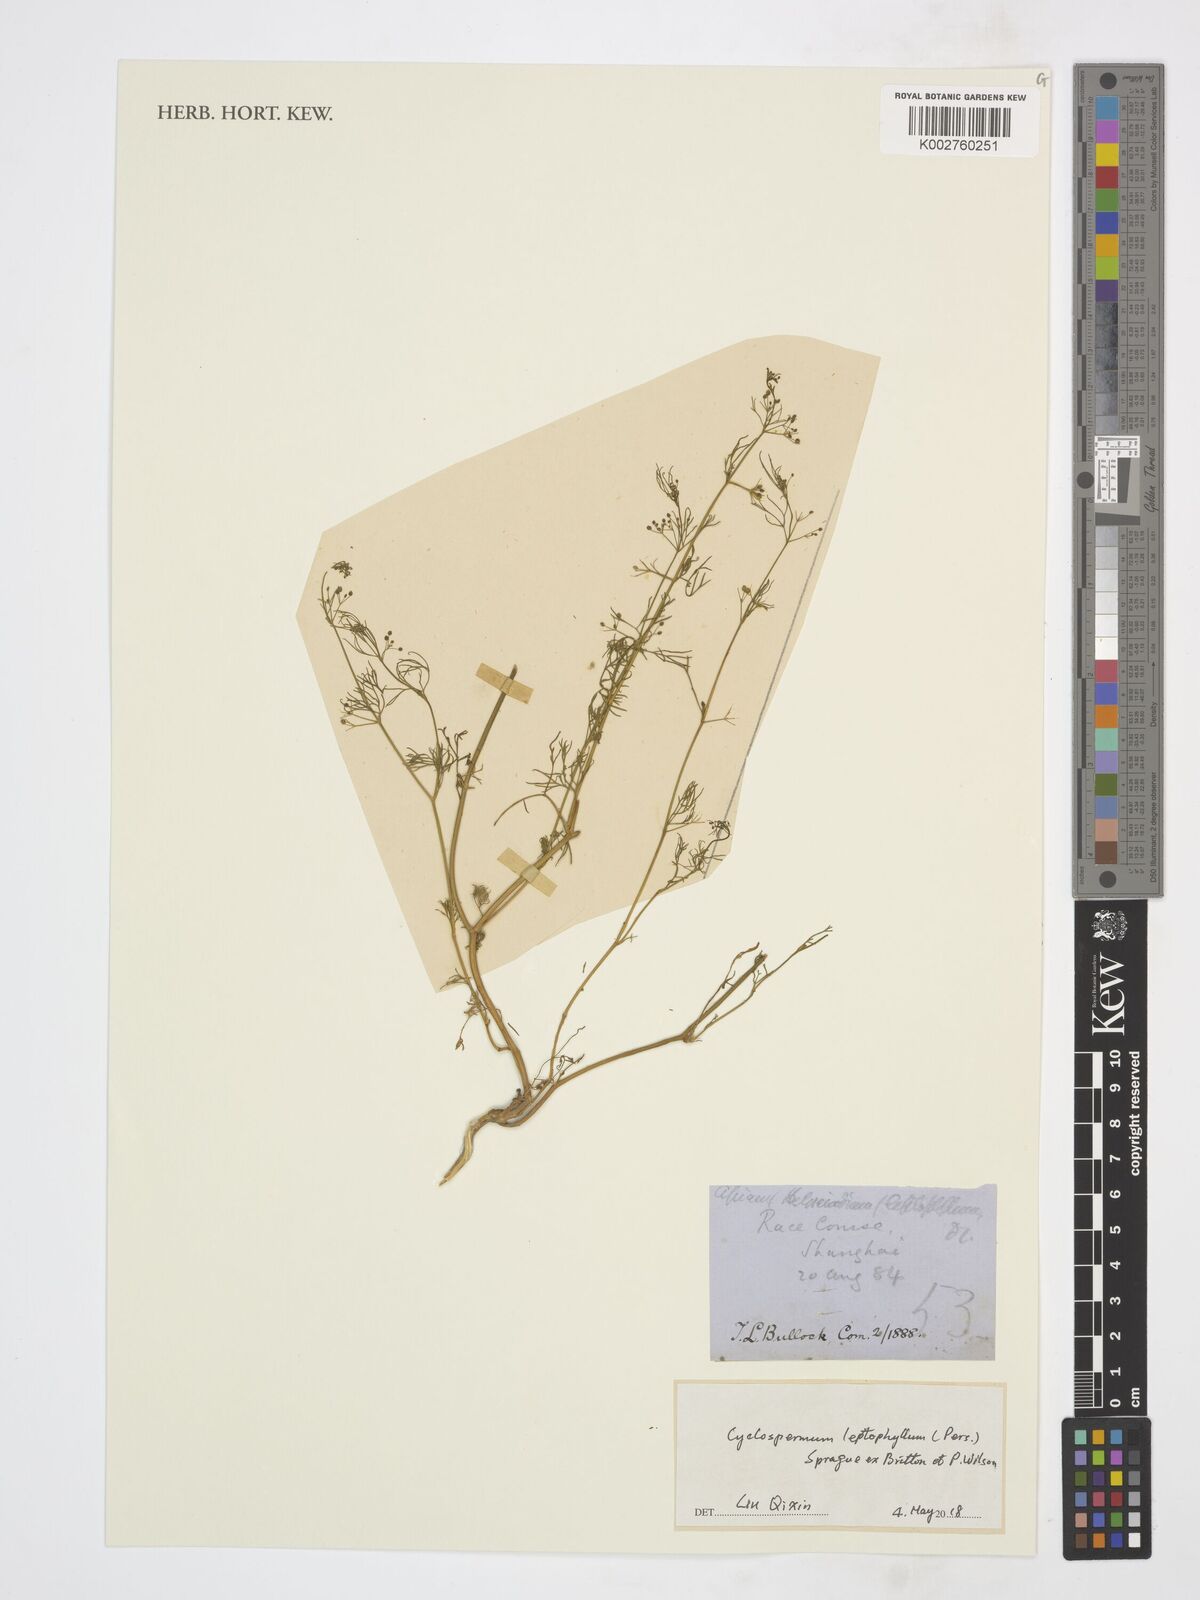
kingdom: Plantae
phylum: Tracheophyta
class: Magnoliopsida
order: Apiales
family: Apiaceae
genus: Cyclospermum
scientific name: Cyclospermum leptophyllum
